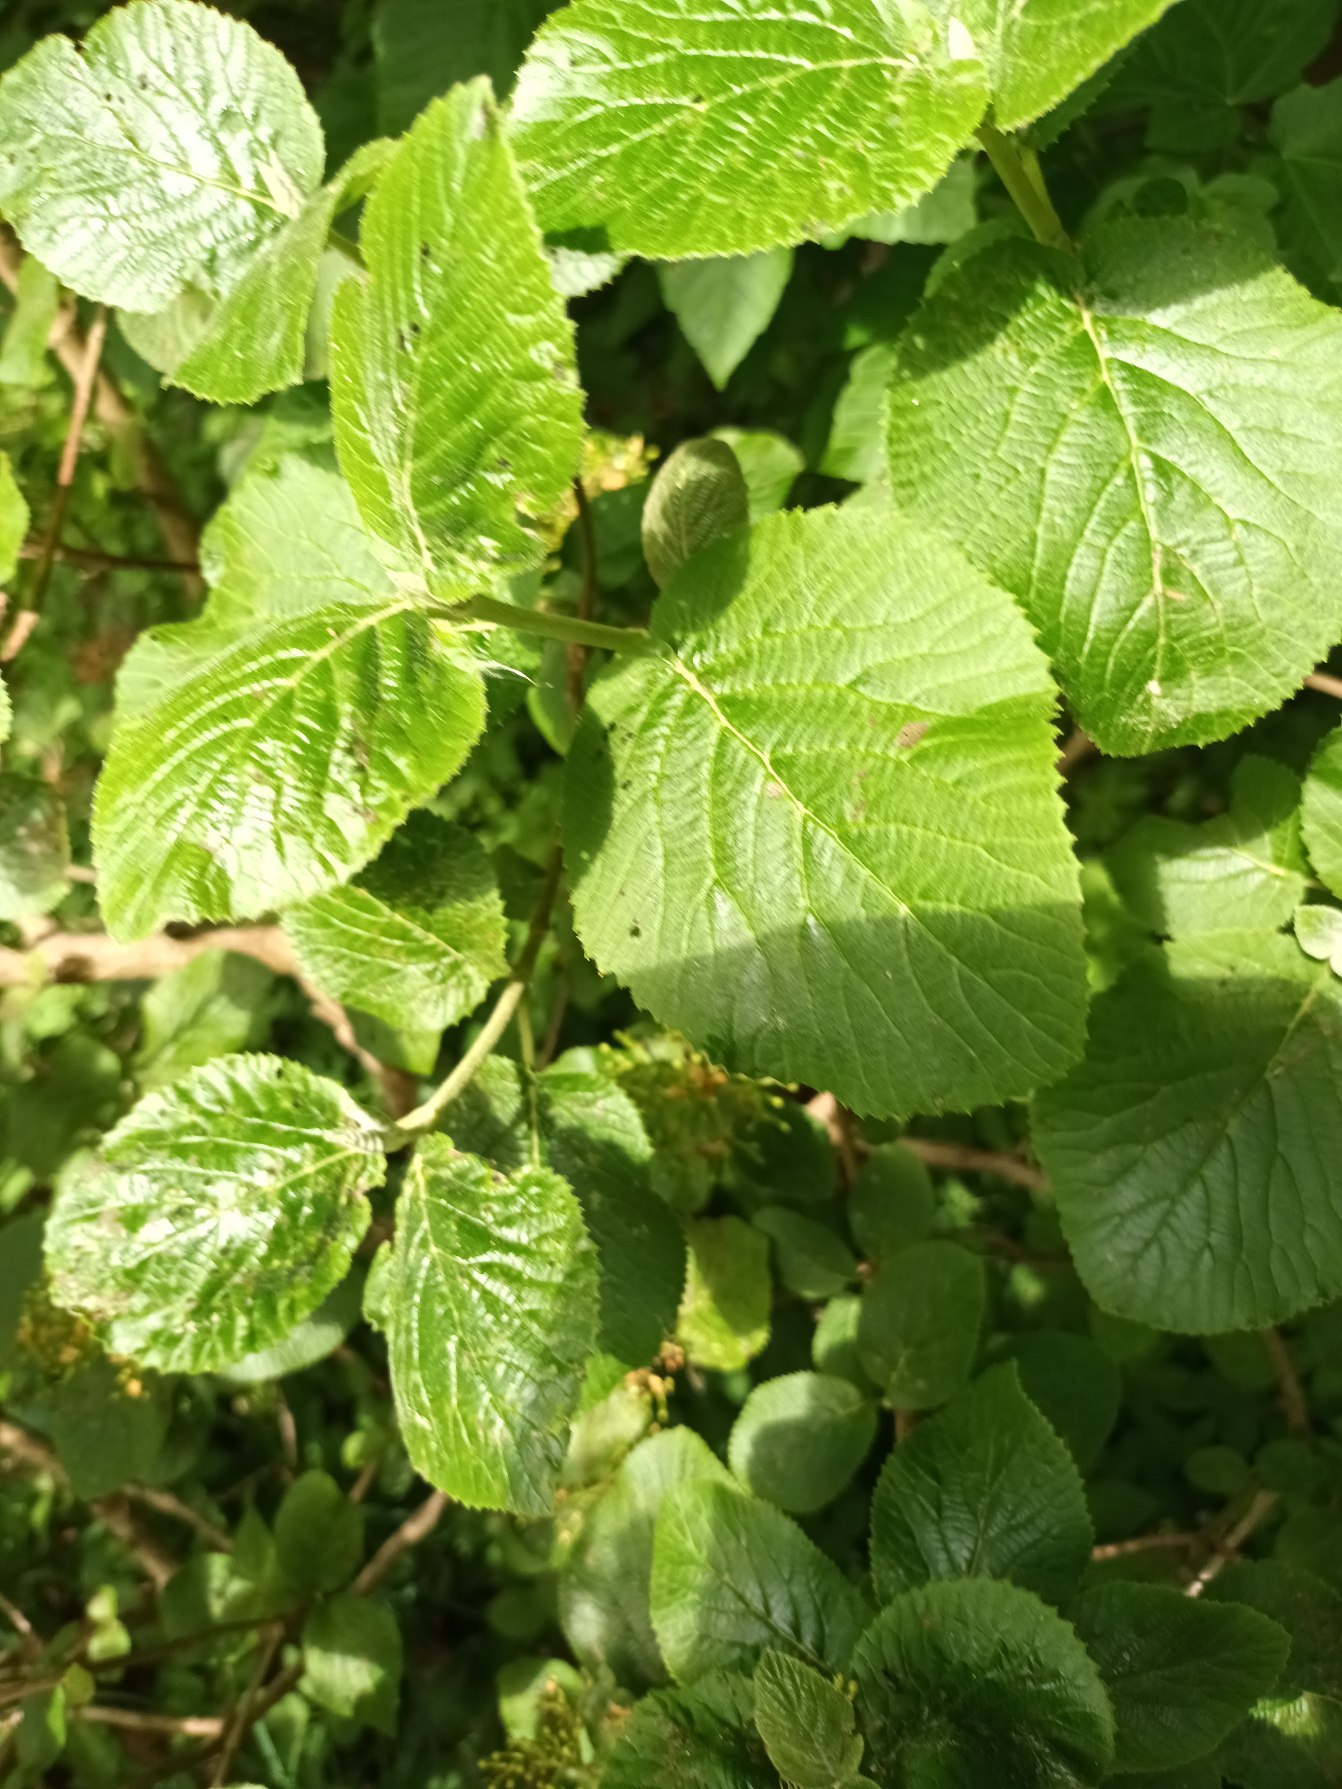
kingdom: Plantae
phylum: Tracheophyta
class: Magnoliopsida
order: Dipsacales
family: Viburnaceae
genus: Viburnum
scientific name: Viburnum lantana
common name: Pibe-kvalkved
